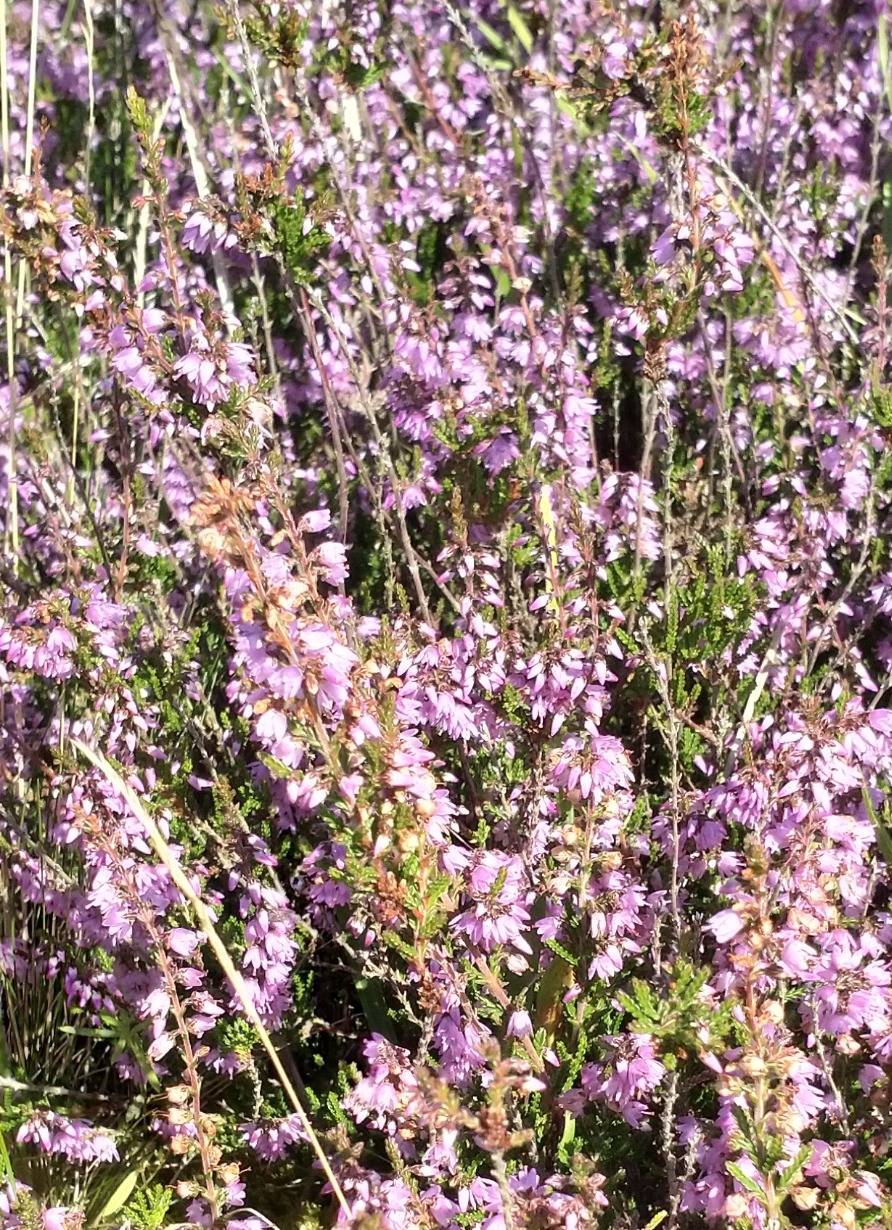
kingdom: Plantae
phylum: Tracheophyta
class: Magnoliopsida
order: Ericales
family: Ericaceae
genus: Calluna
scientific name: Calluna vulgaris
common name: Hedelyng
